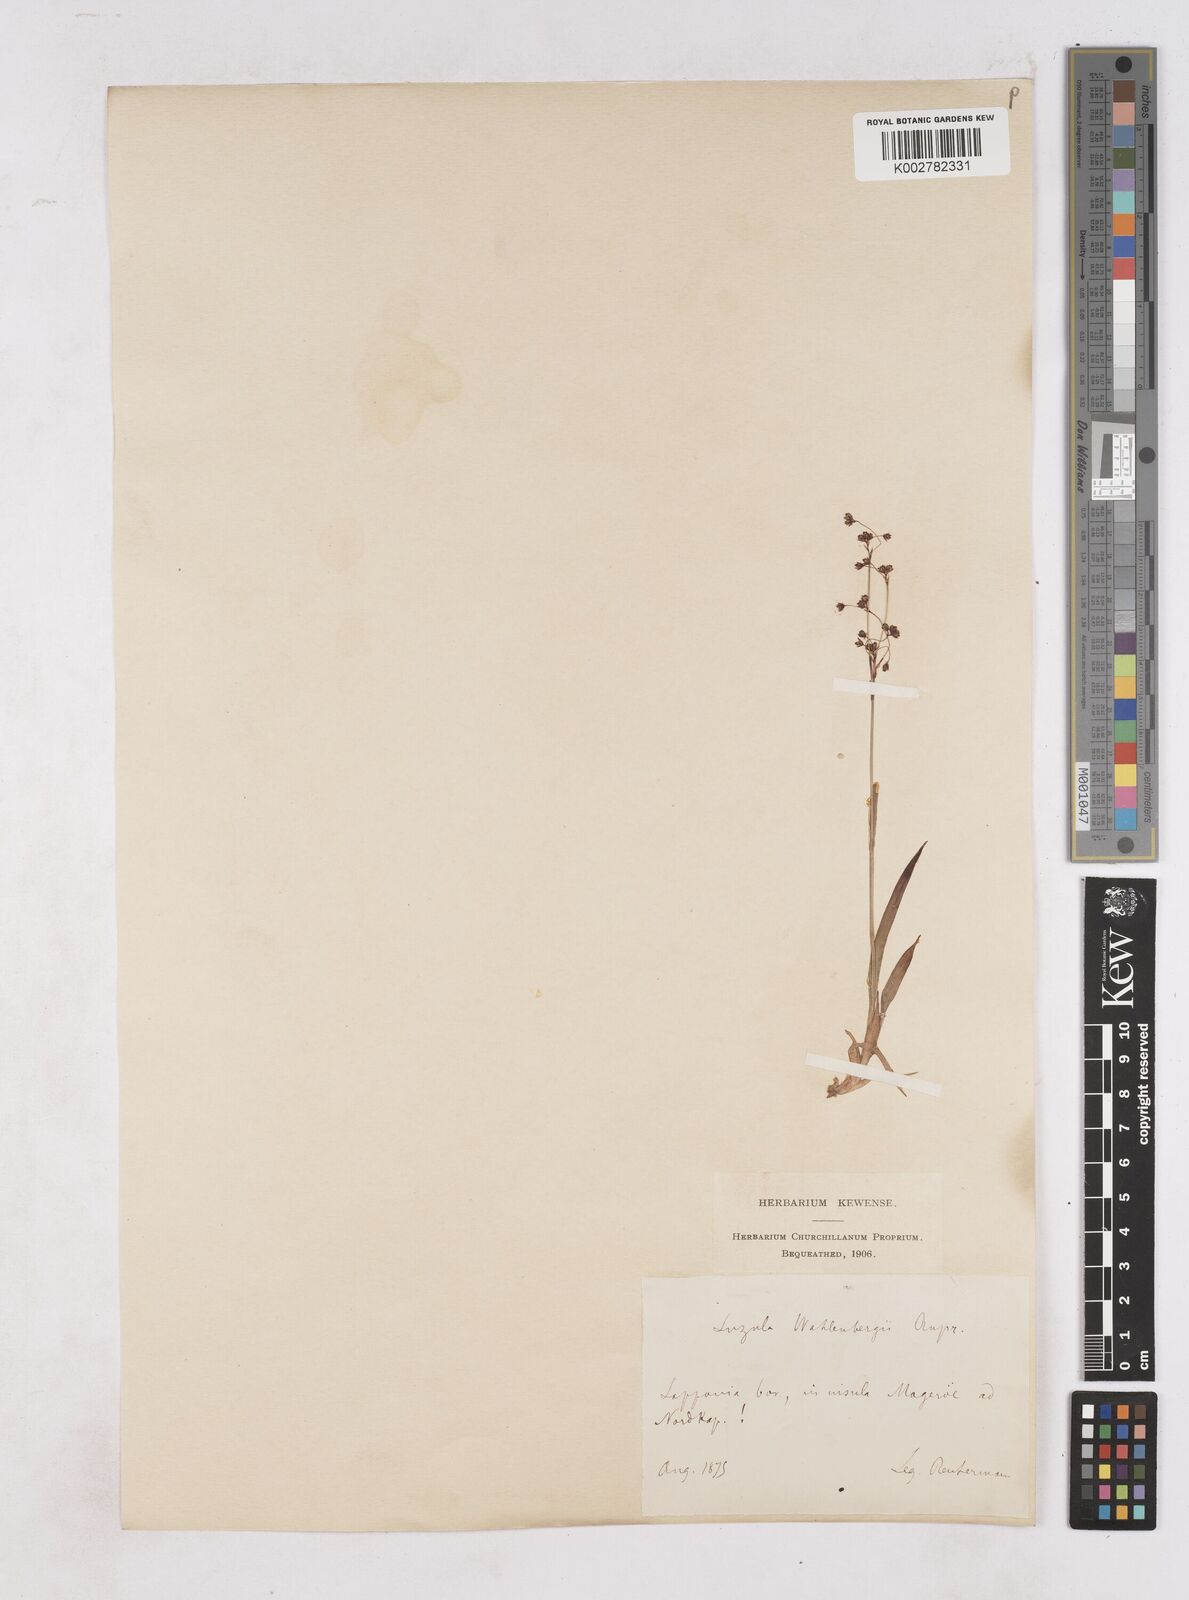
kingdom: Plantae
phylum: Tracheophyta
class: Liliopsida
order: Poales
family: Juncaceae
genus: Luzula
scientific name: Luzula alpinopilosa
